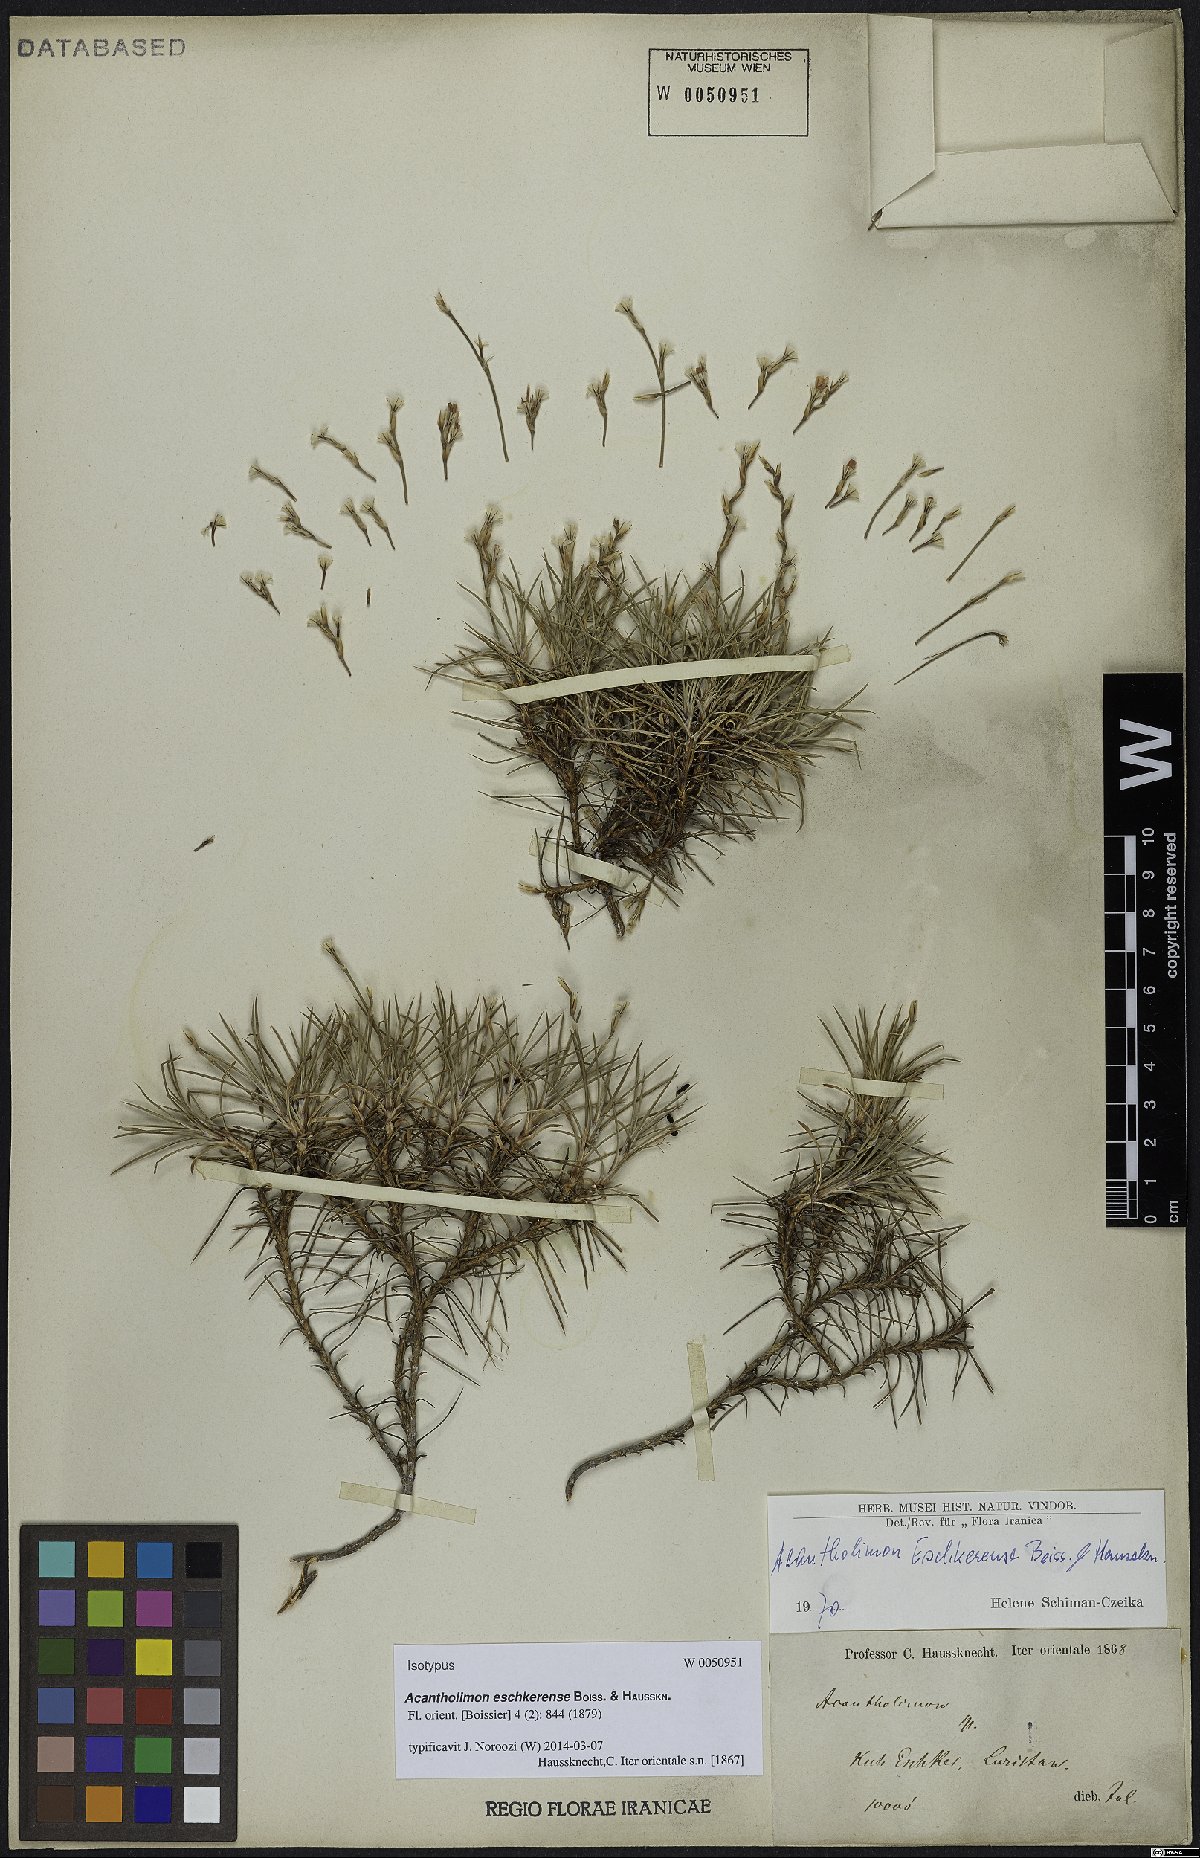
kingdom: Plantae
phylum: Tracheophyta
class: Magnoliopsida
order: Caryophyllales
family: Plumbaginaceae
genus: Acantholimon
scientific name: Acantholimon eschkerense
